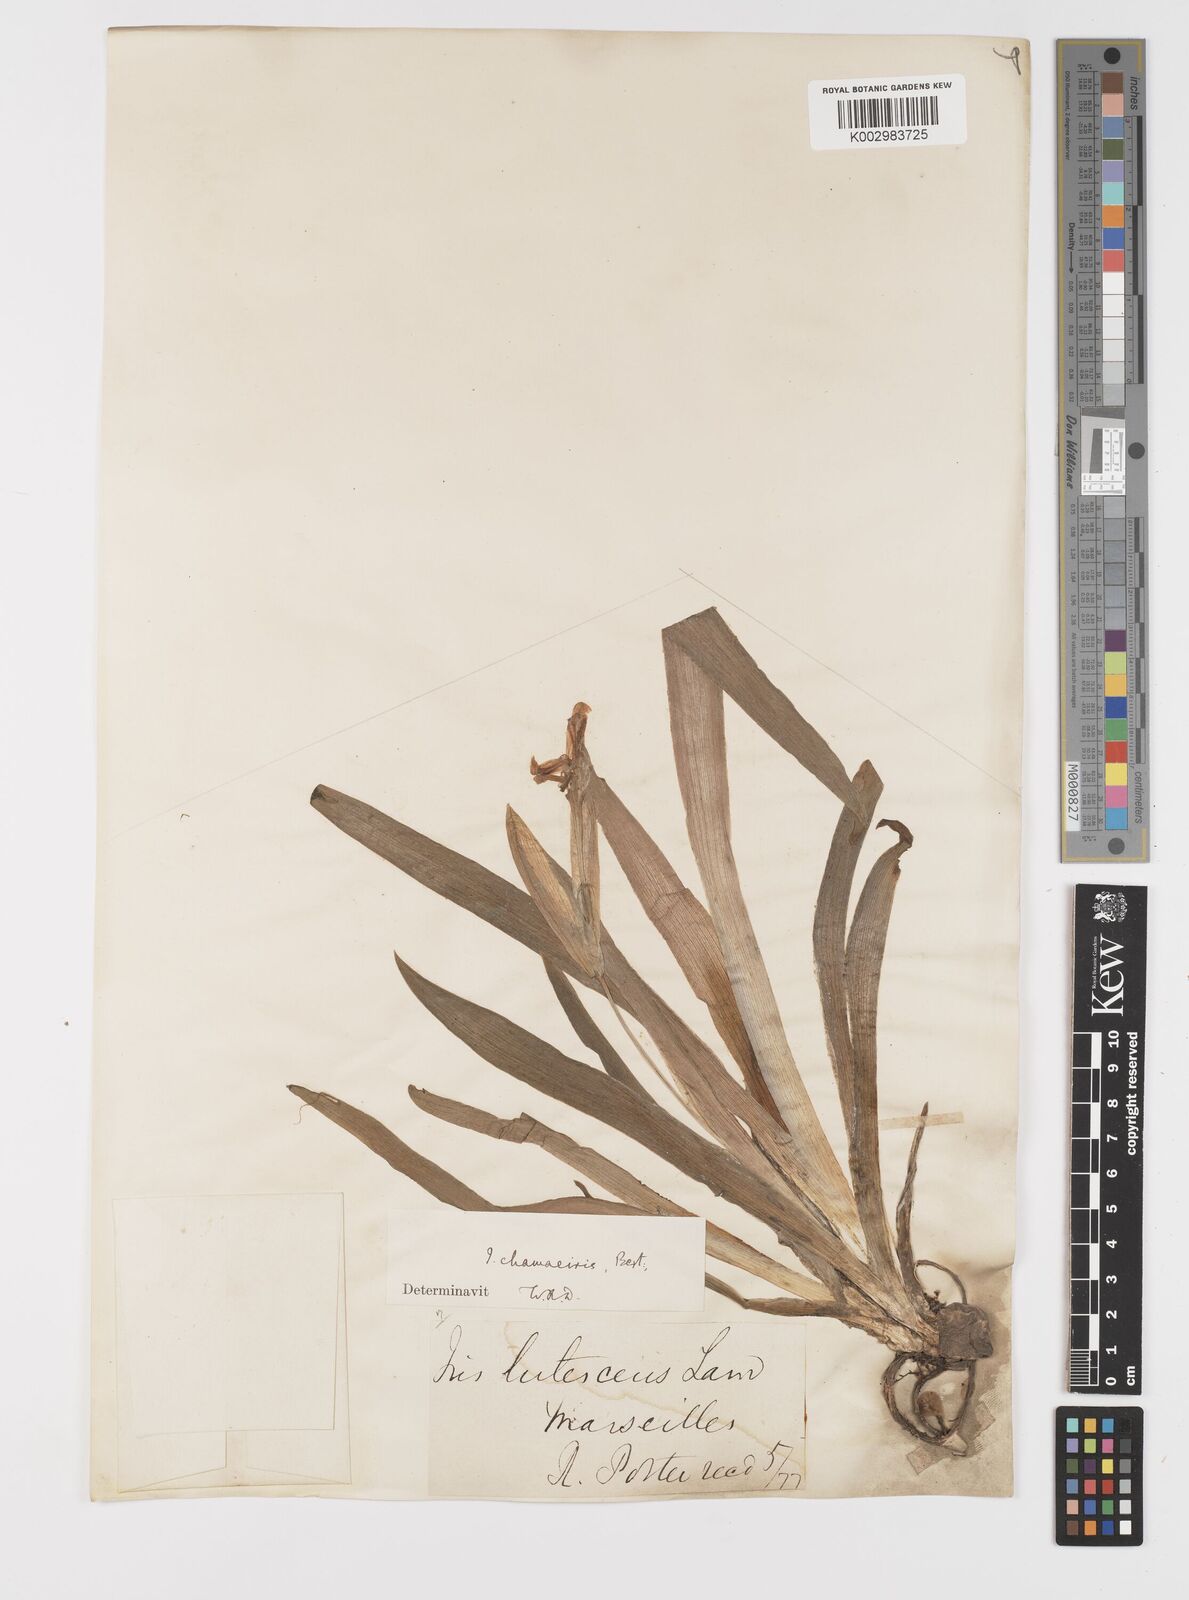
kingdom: Plantae
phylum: Tracheophyta
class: Liliopsida
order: Asparagales
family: Iridaceae
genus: Iris
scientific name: Iris lutescens
